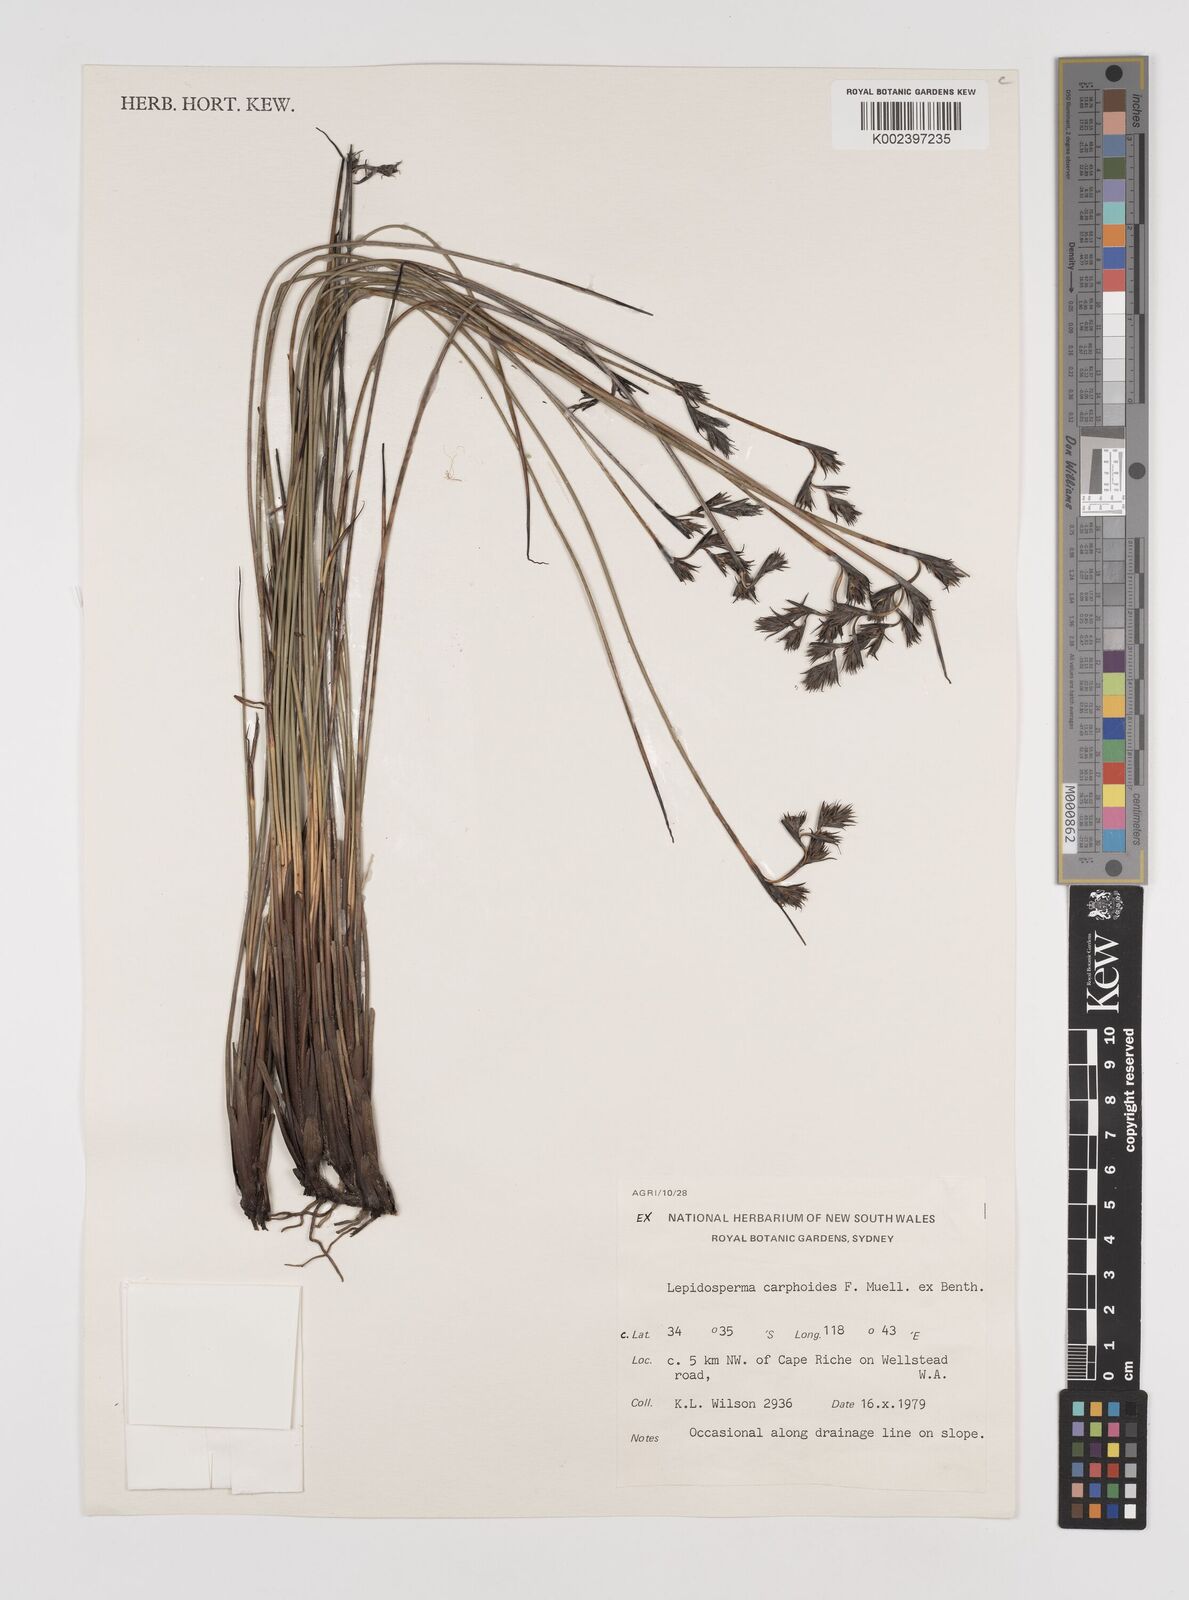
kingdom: Plantae
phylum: Tracheophyta
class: Liliopsida
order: Poales
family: Cyperaceae
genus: Lepidosperma
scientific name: Lepidosperma carphoides
